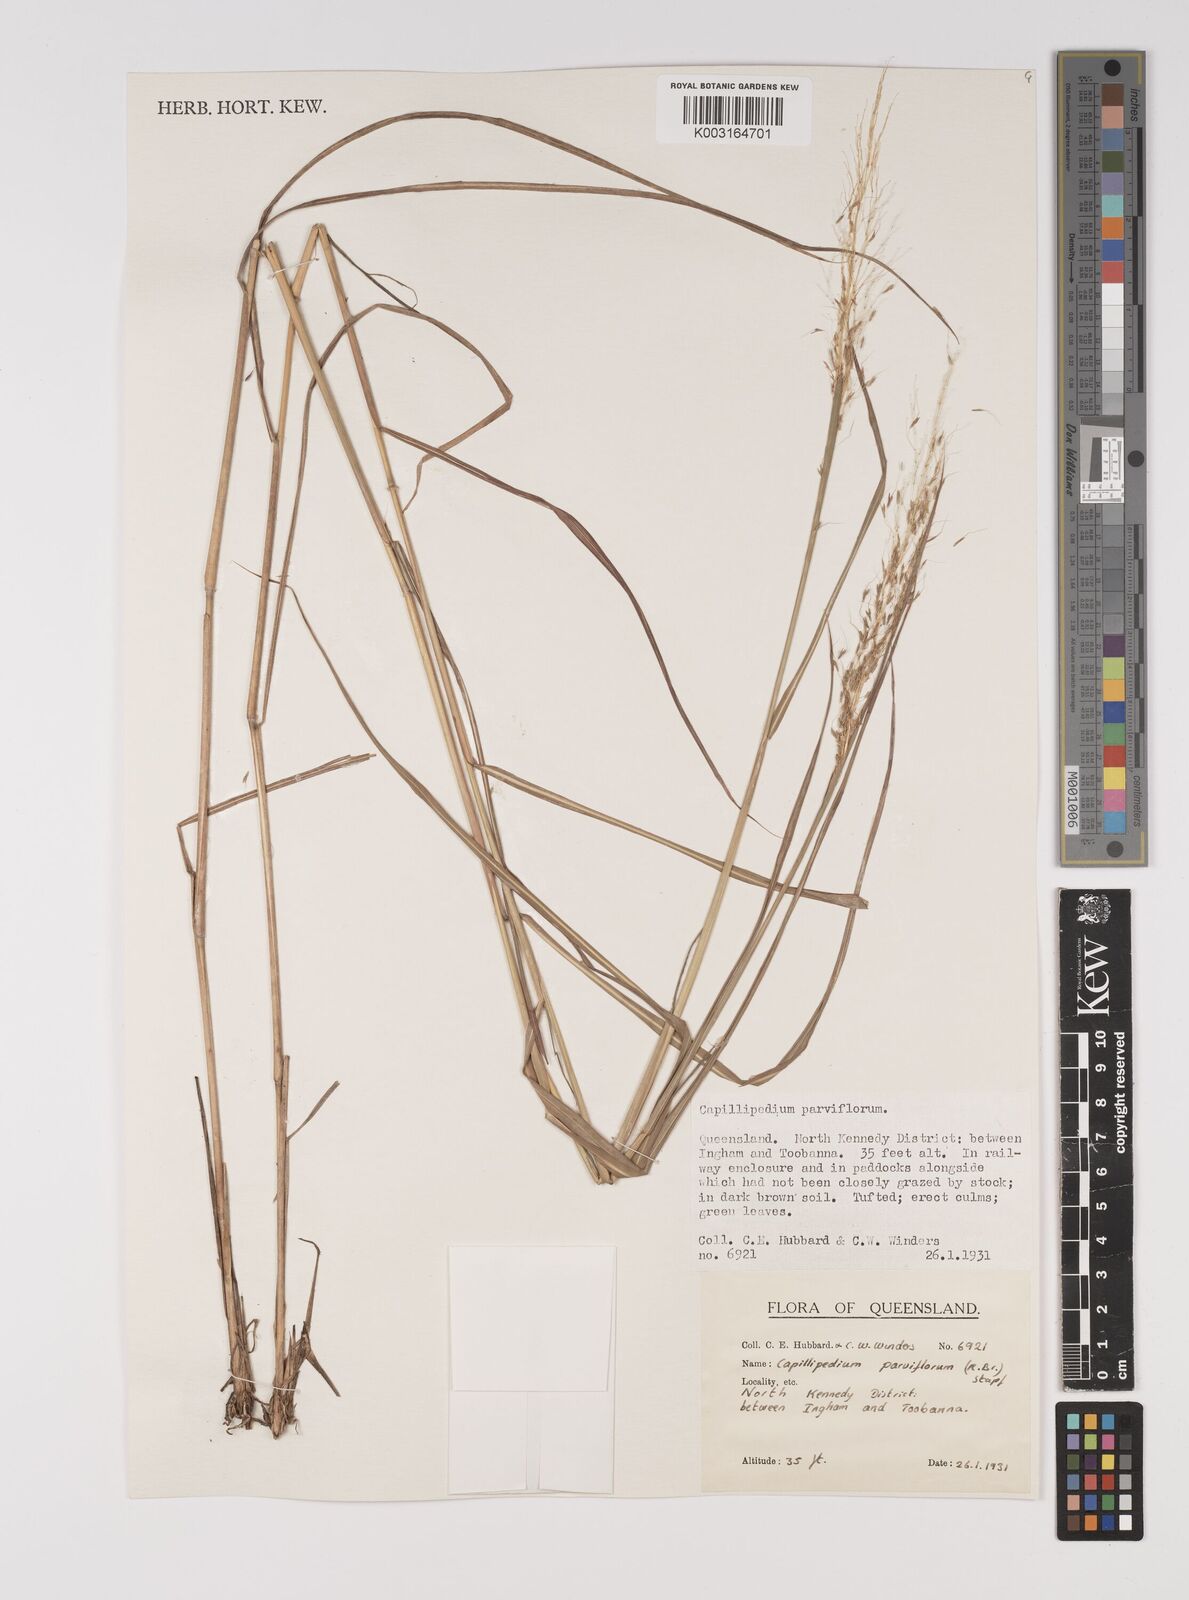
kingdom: Plantae
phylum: Tracheophyta
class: Liliopsida
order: Poales
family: Poaceae
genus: Capillipedium
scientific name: Capillipedium parviflorum
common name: Golden-beard
